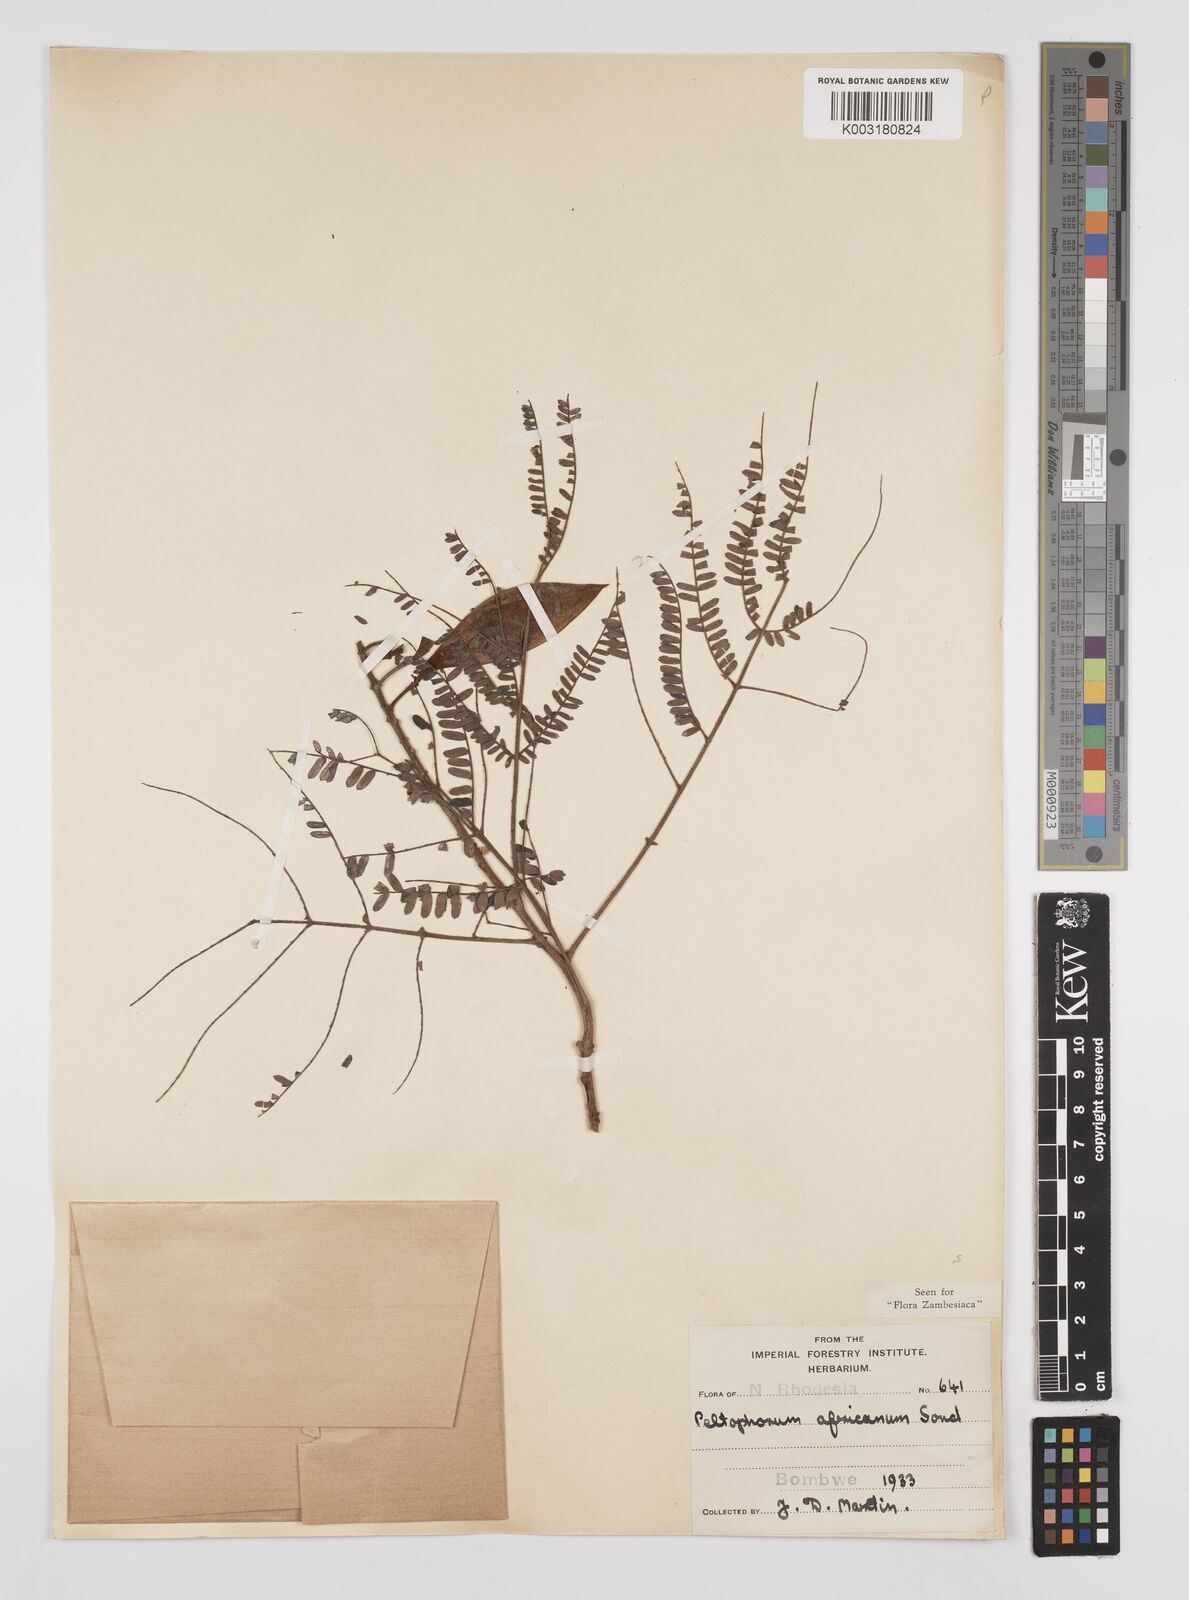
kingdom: Plantae
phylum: Tracheophyta
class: Magnoliopsida
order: Fabales
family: Fabaceae
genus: Peltophorum
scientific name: Peltophorum africanum
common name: African black wattle
